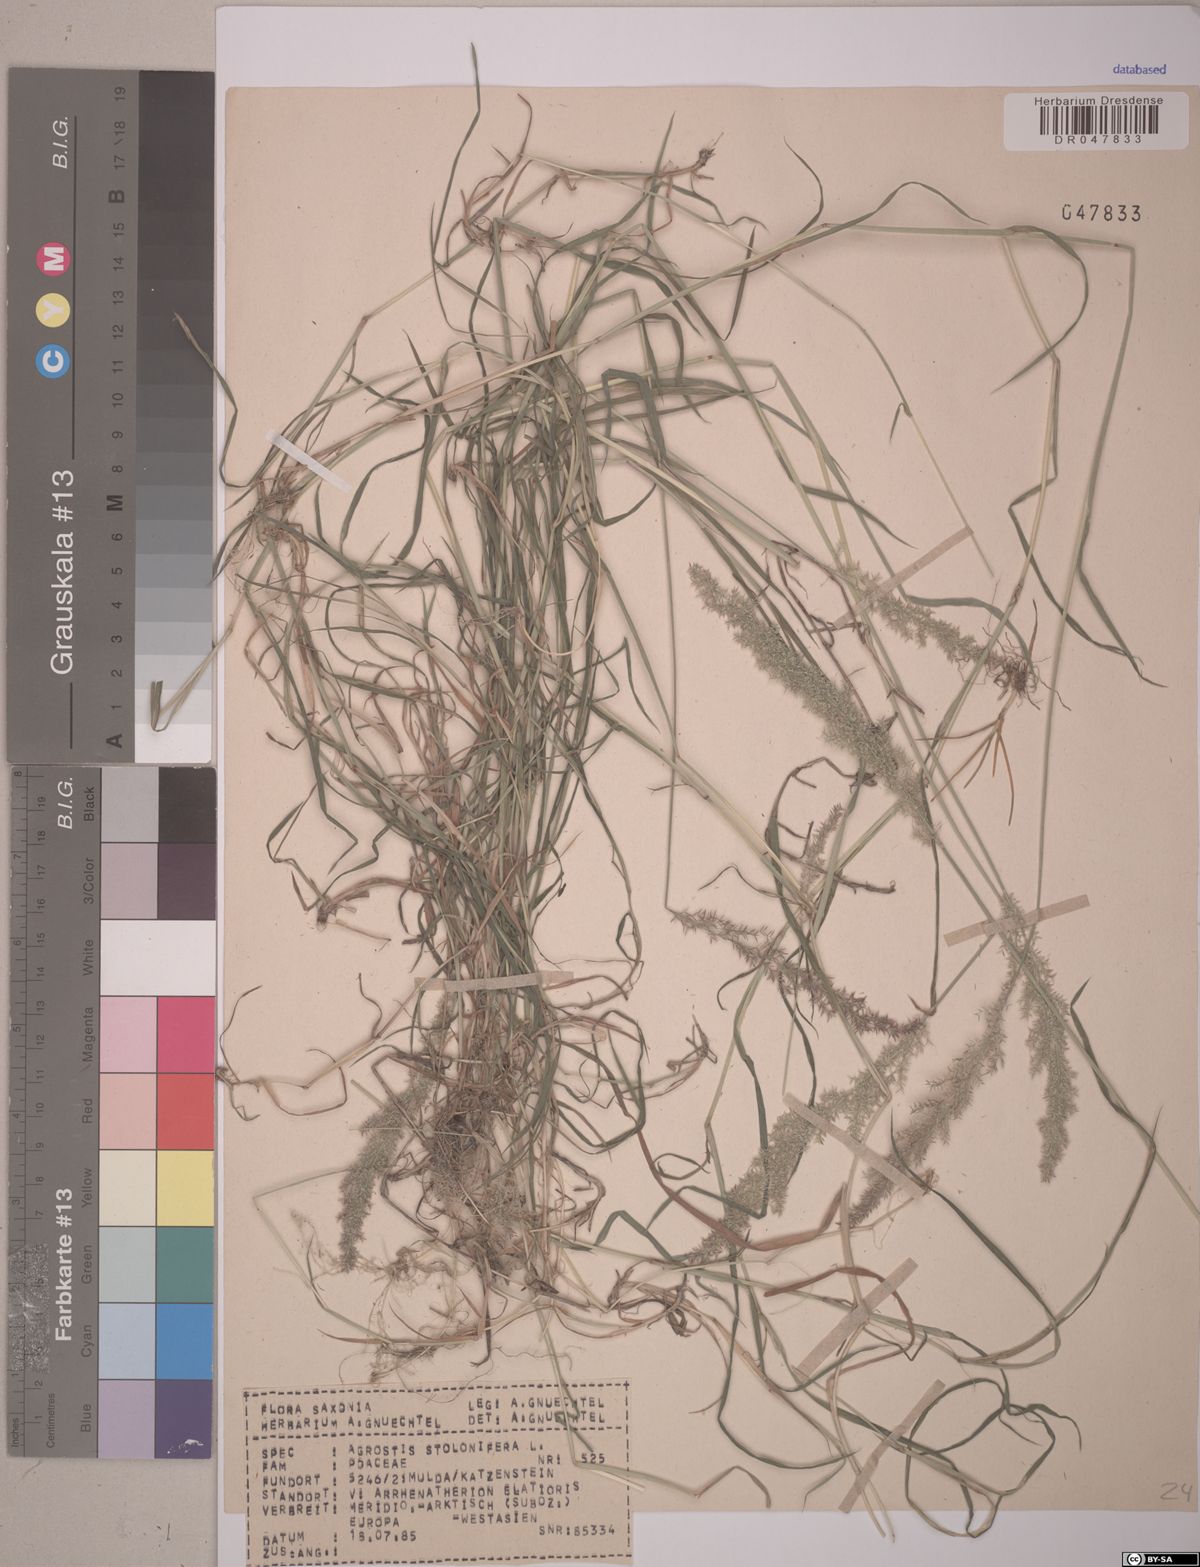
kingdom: Plantae
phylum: Tracheophyta
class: Liliopsida
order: Poales
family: Poaceae
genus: Agrostis
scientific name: Agrostis stolonifera
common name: Creeping bentgrass
